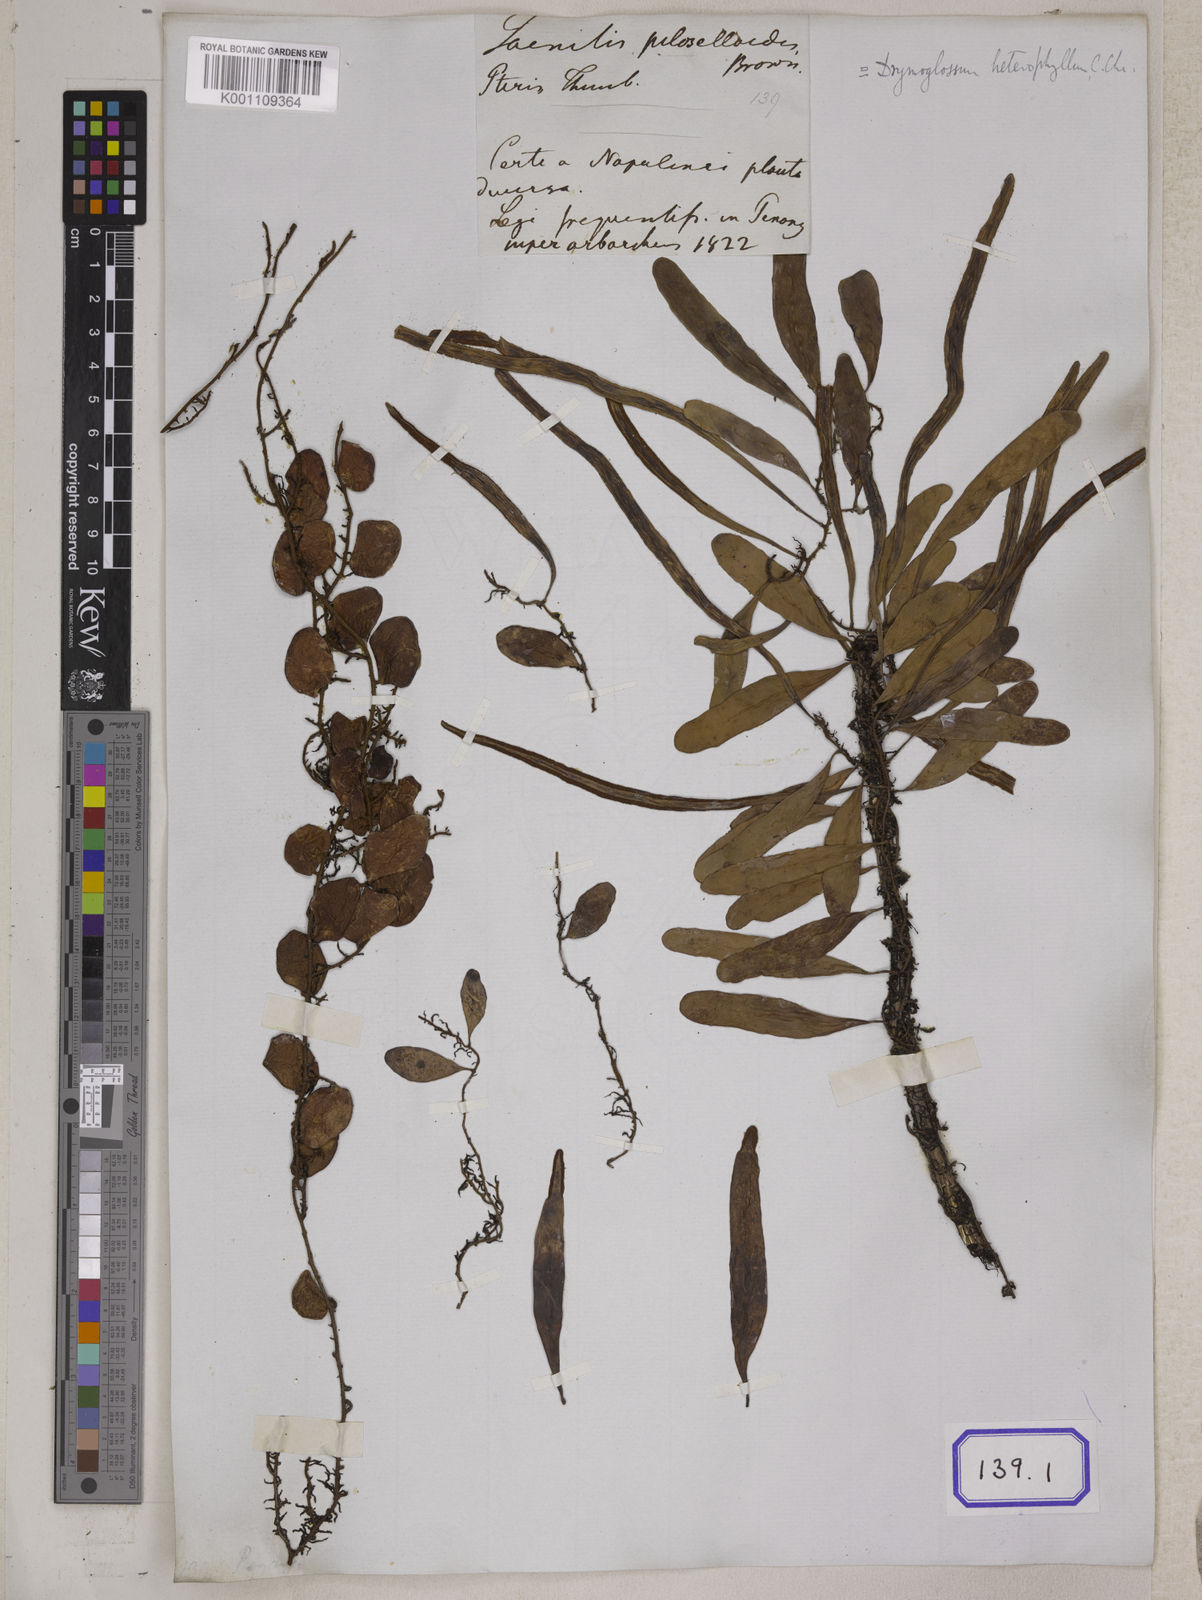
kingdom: Plantae
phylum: Tracheophyta
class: Polypodiopsida
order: Polypodiales
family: Polypodiaceae
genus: Pyrrosia
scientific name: Pyrrosia piloselloides
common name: Epiphytic creeping fern
